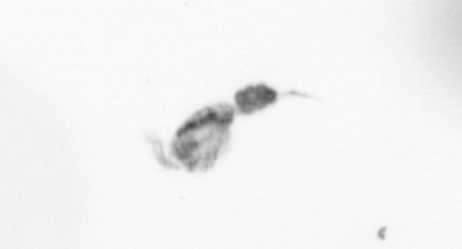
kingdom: Animalia
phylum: Arthropoda
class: Copepoda
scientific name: Copepoda
